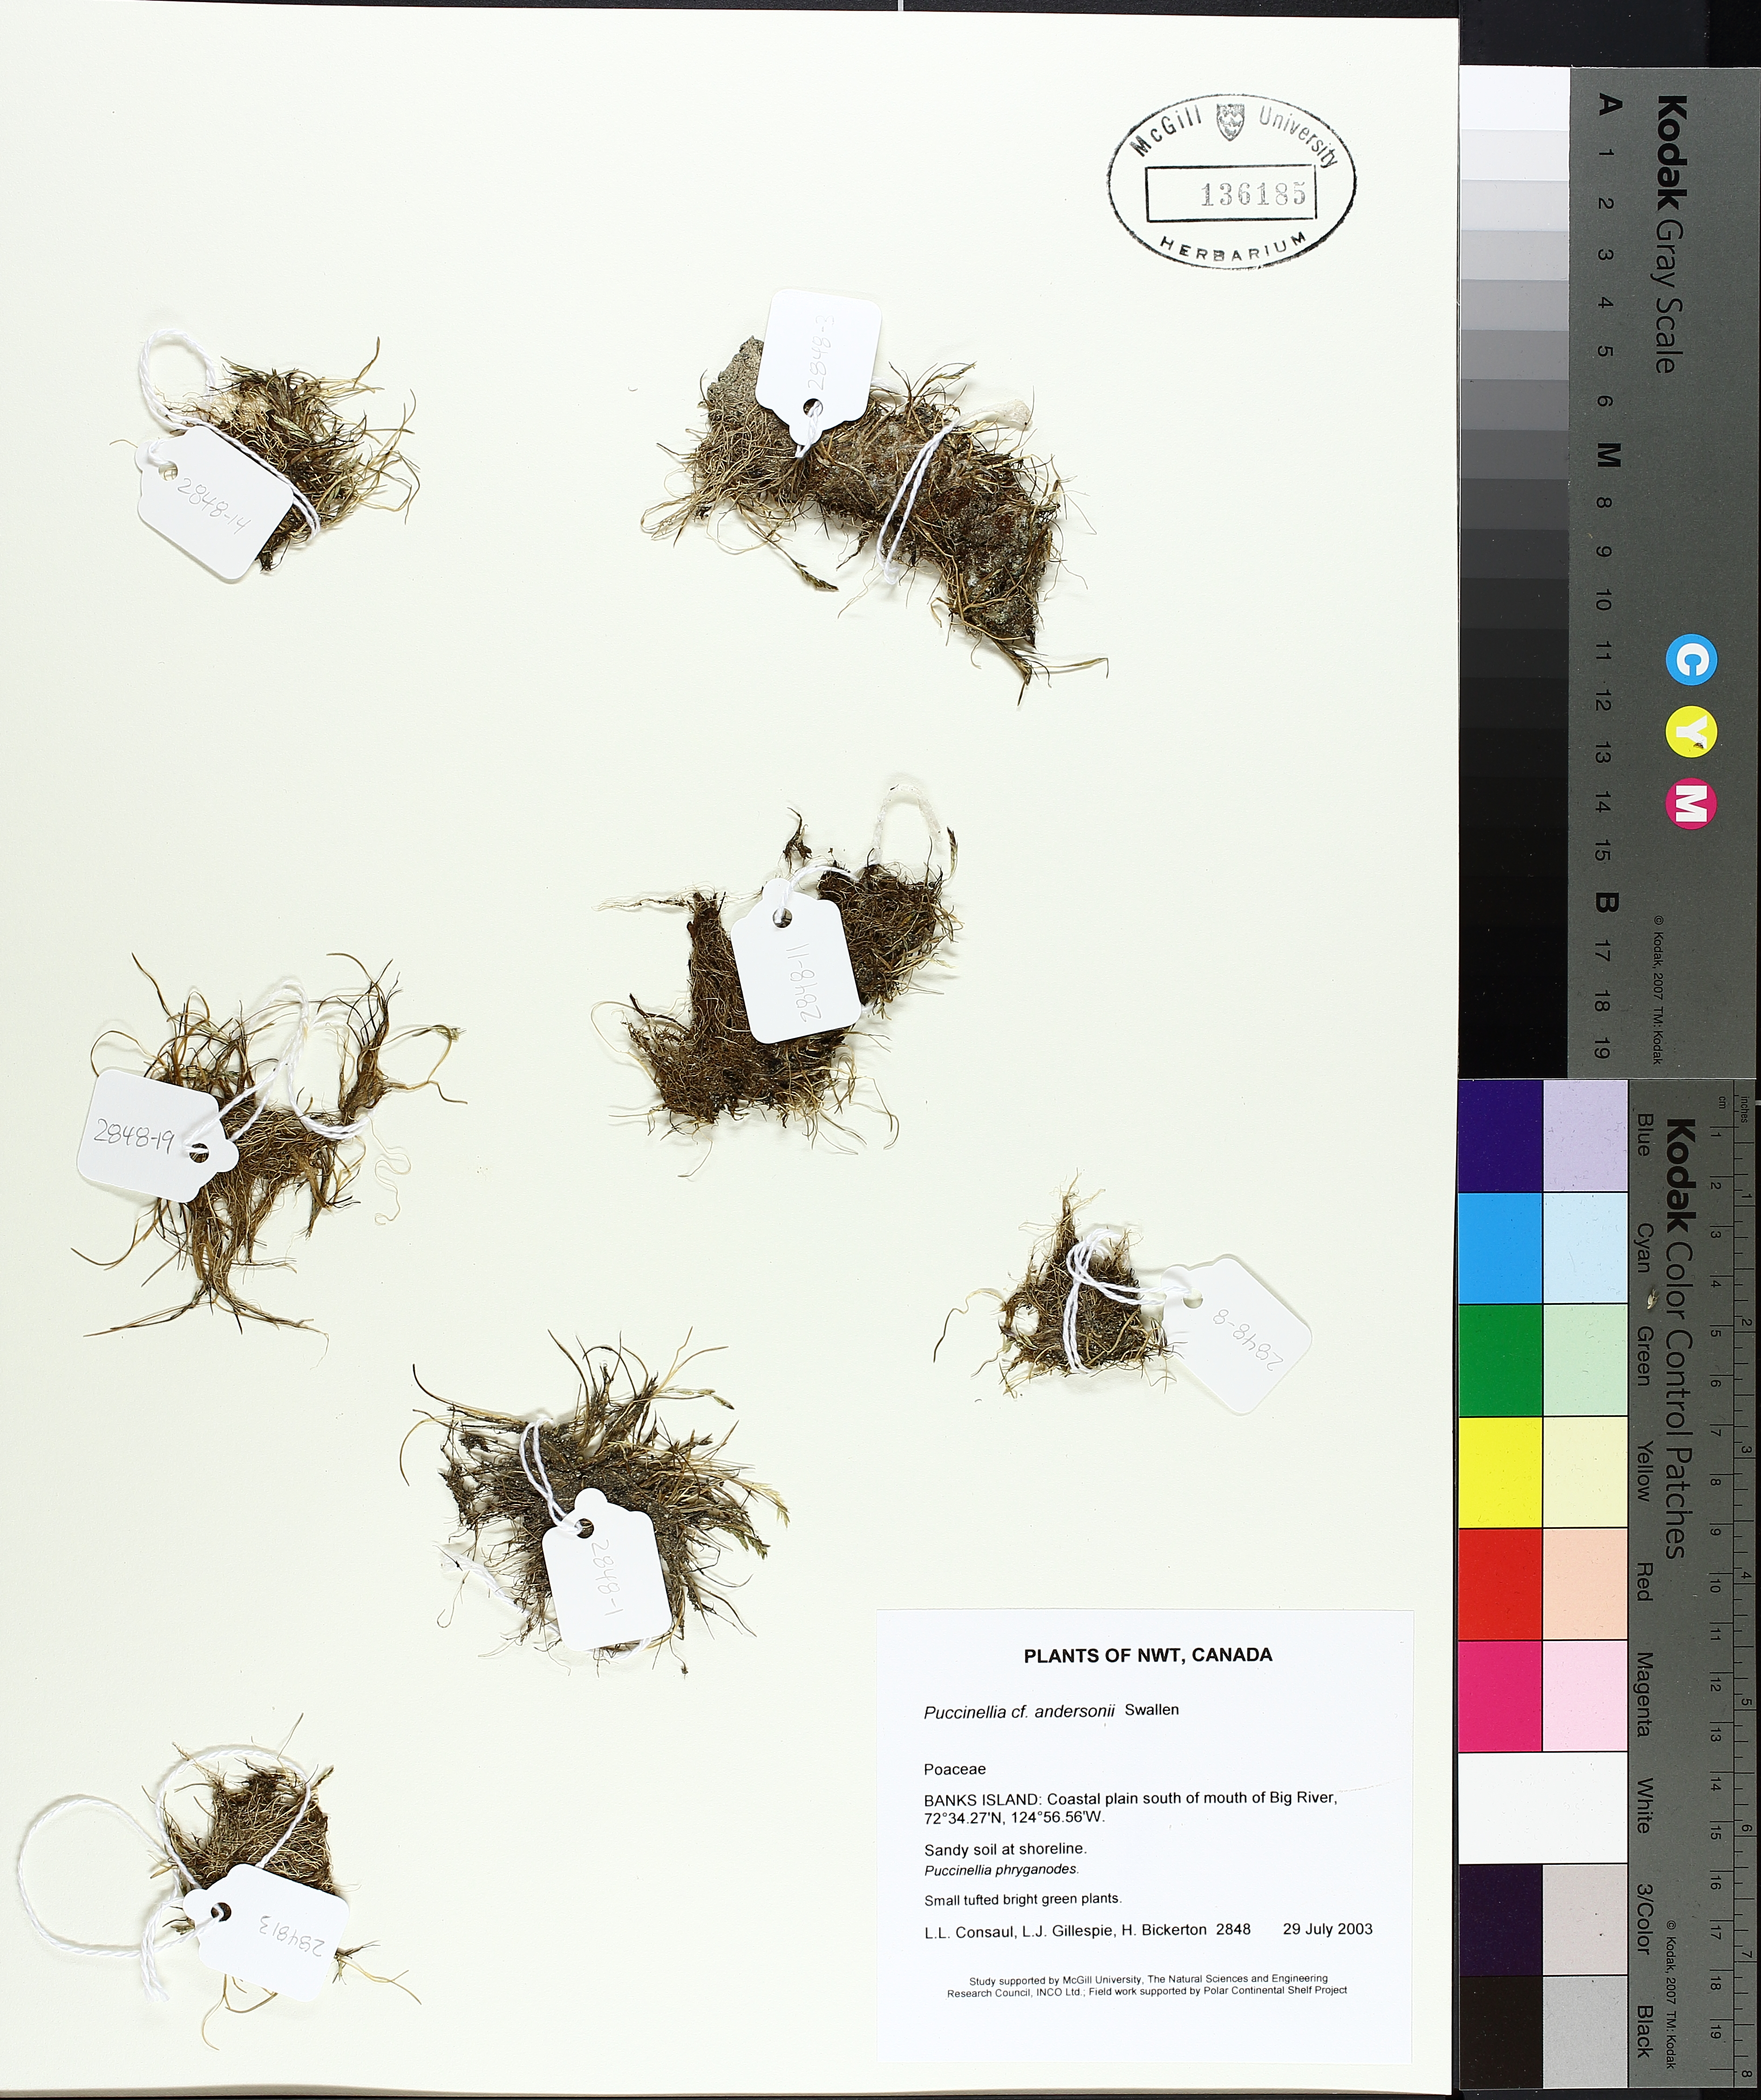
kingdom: Plantae
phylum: Tracheophyta
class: Liliopsida
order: Poales
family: Poaceae
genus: Puccinellia
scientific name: Puccinellia andersonii
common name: Anderson's alkali grass
